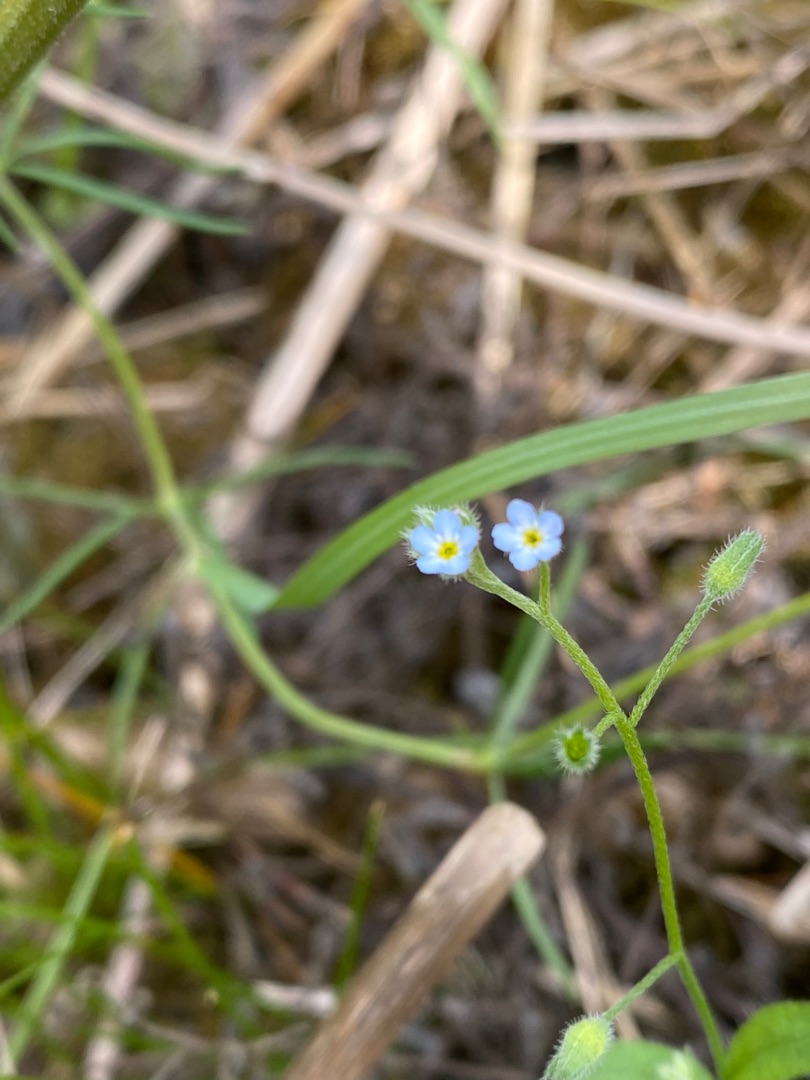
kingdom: Plantae
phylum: Tracheophyta
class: Magnoliopsida
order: Boraginales
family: Boraginaceae
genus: Myosotis
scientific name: Myosotis arvensis
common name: Mark-forglemmigej
